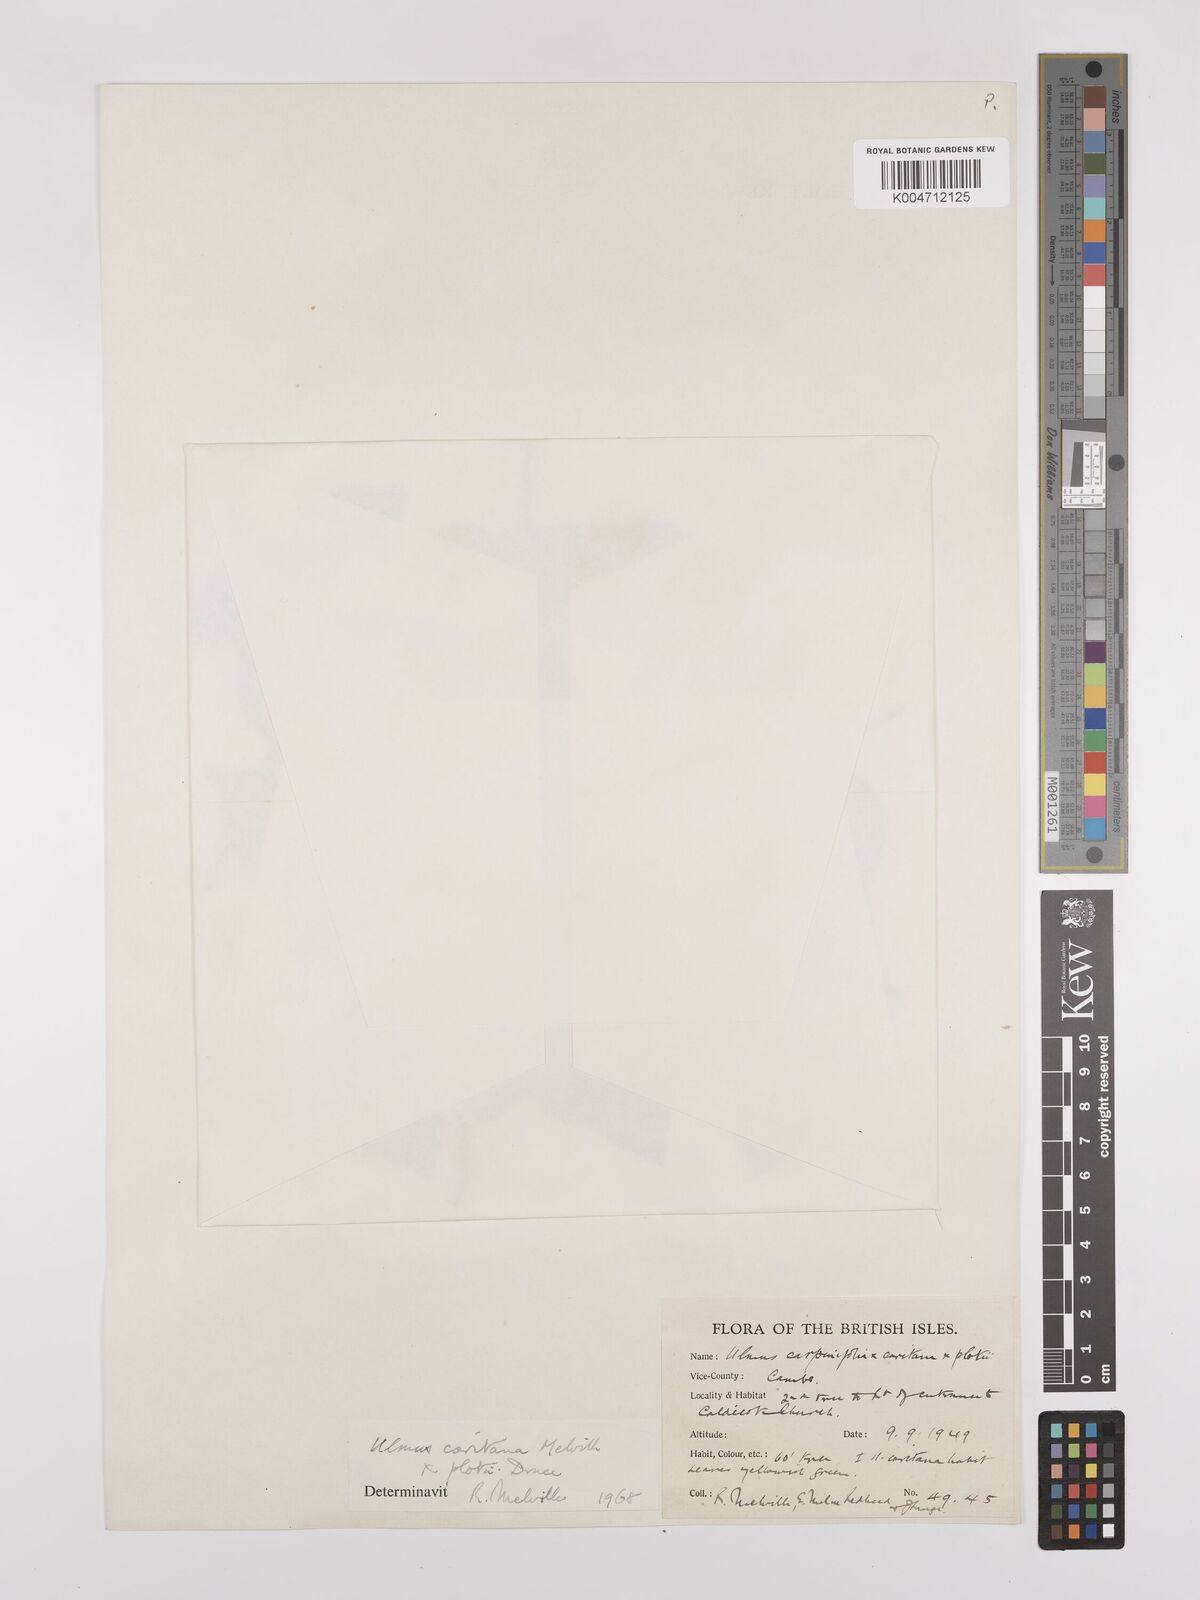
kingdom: Plantae
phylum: Tracheophyta
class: Magnoliopsida
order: Rosales
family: Ulmaceae
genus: Ulmus
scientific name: Ulmus minor
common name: Small-leaved elm
